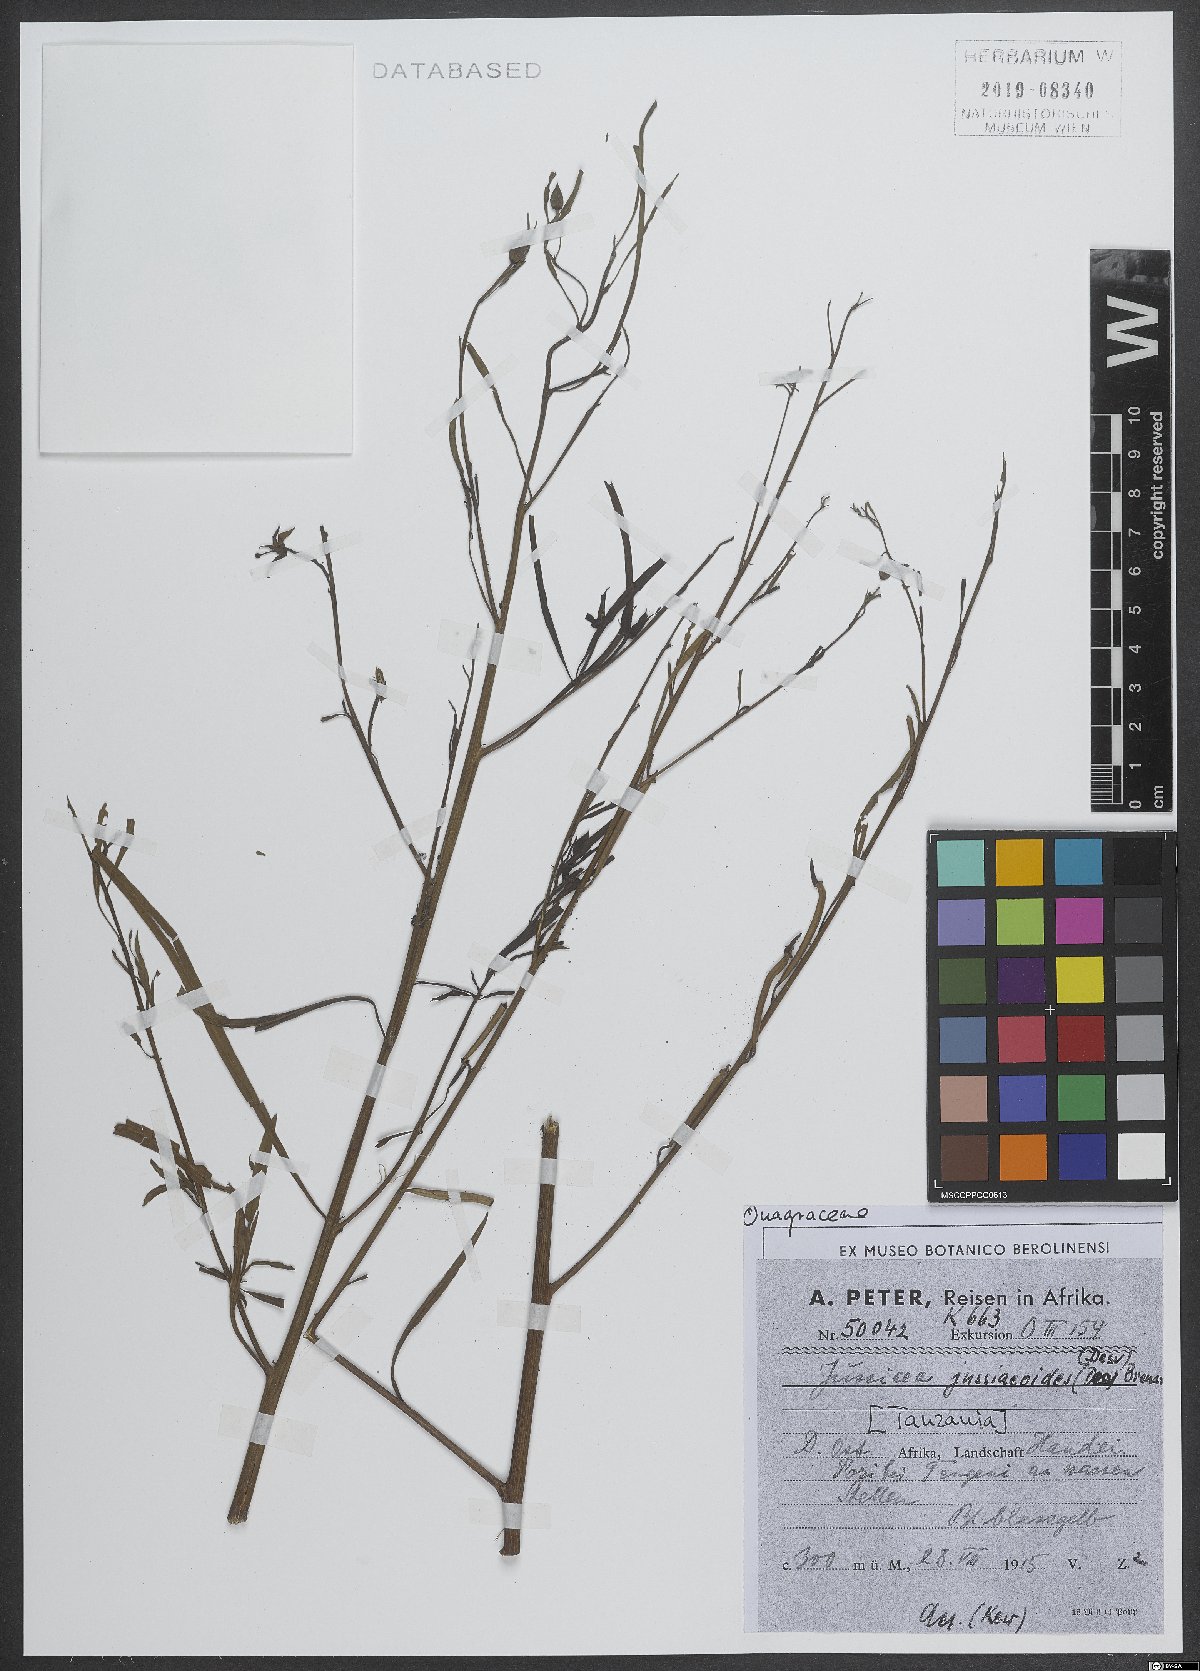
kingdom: Plantae
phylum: Tracheophyta
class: Magnoliopsida
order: Myrtales
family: Onagraceae
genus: Ludwigia
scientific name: Ludwigia jussiaeoides
